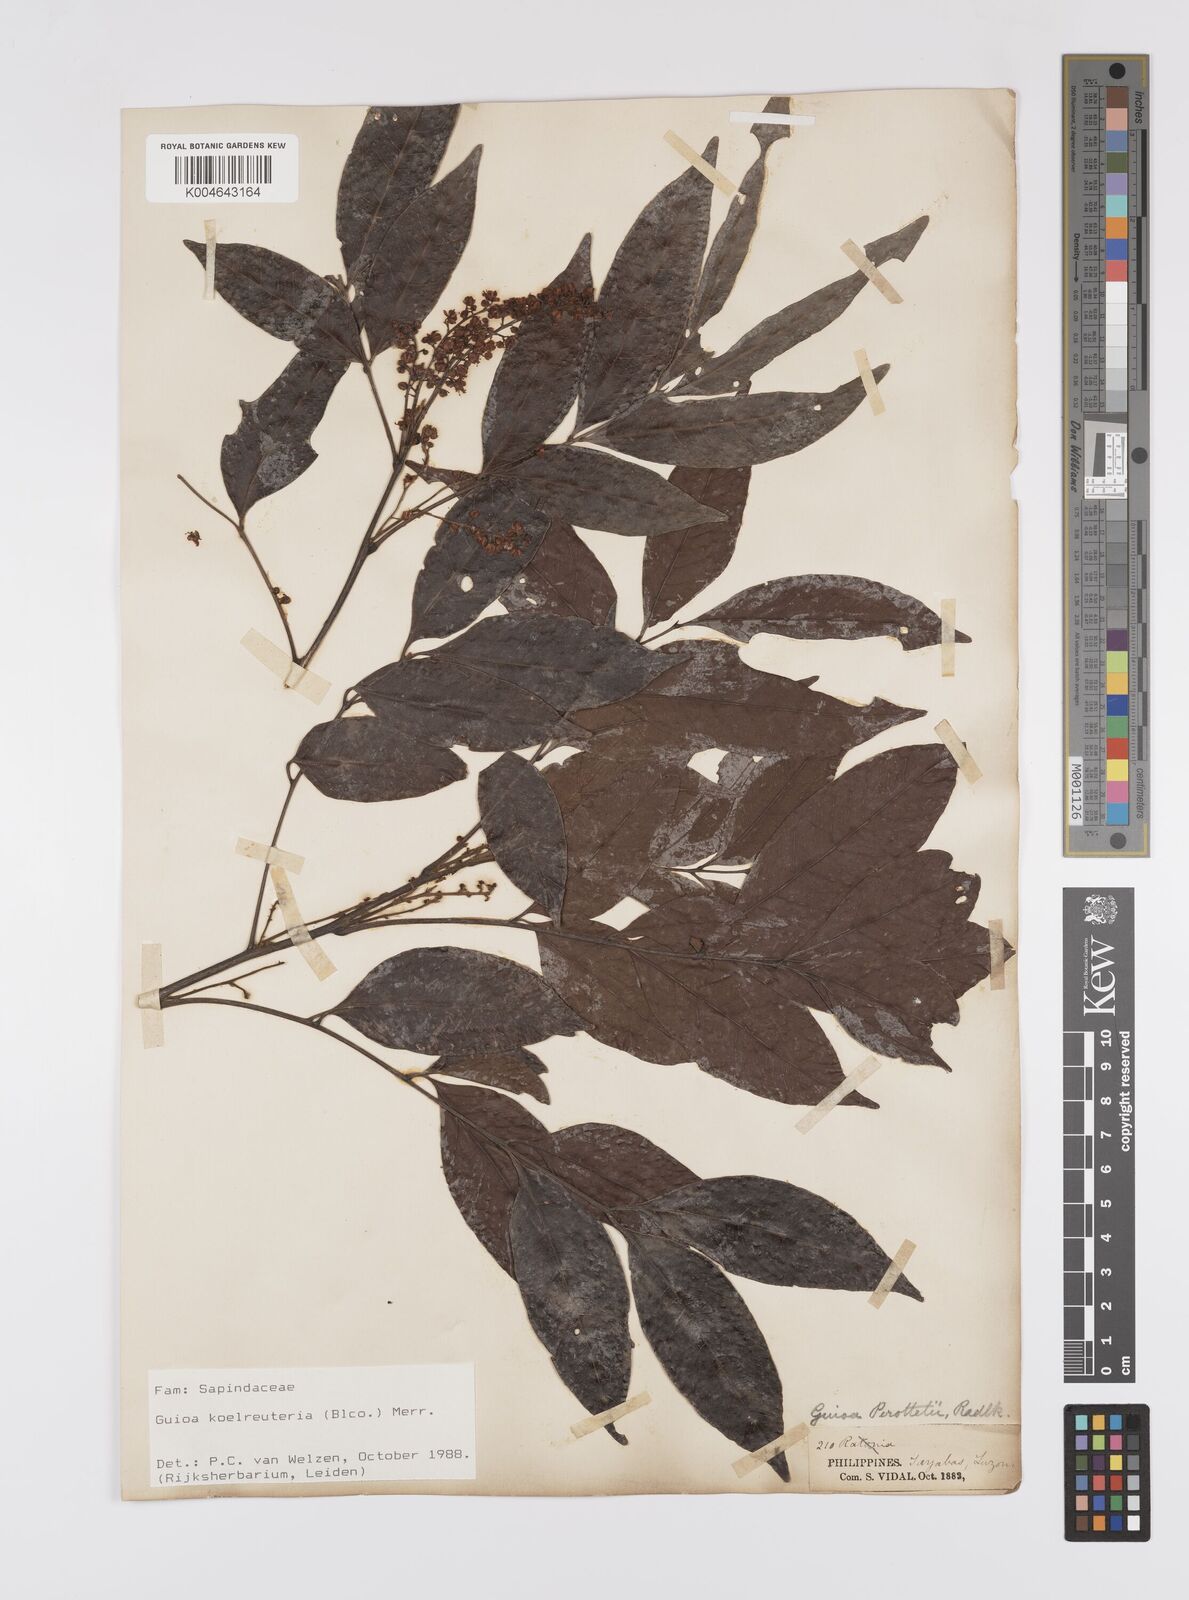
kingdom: Plantae
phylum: Tracheophyta
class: Magnoliopsida
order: Sapindales
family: Sapindaceae
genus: Guioa
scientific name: Guioa koelreuteria
